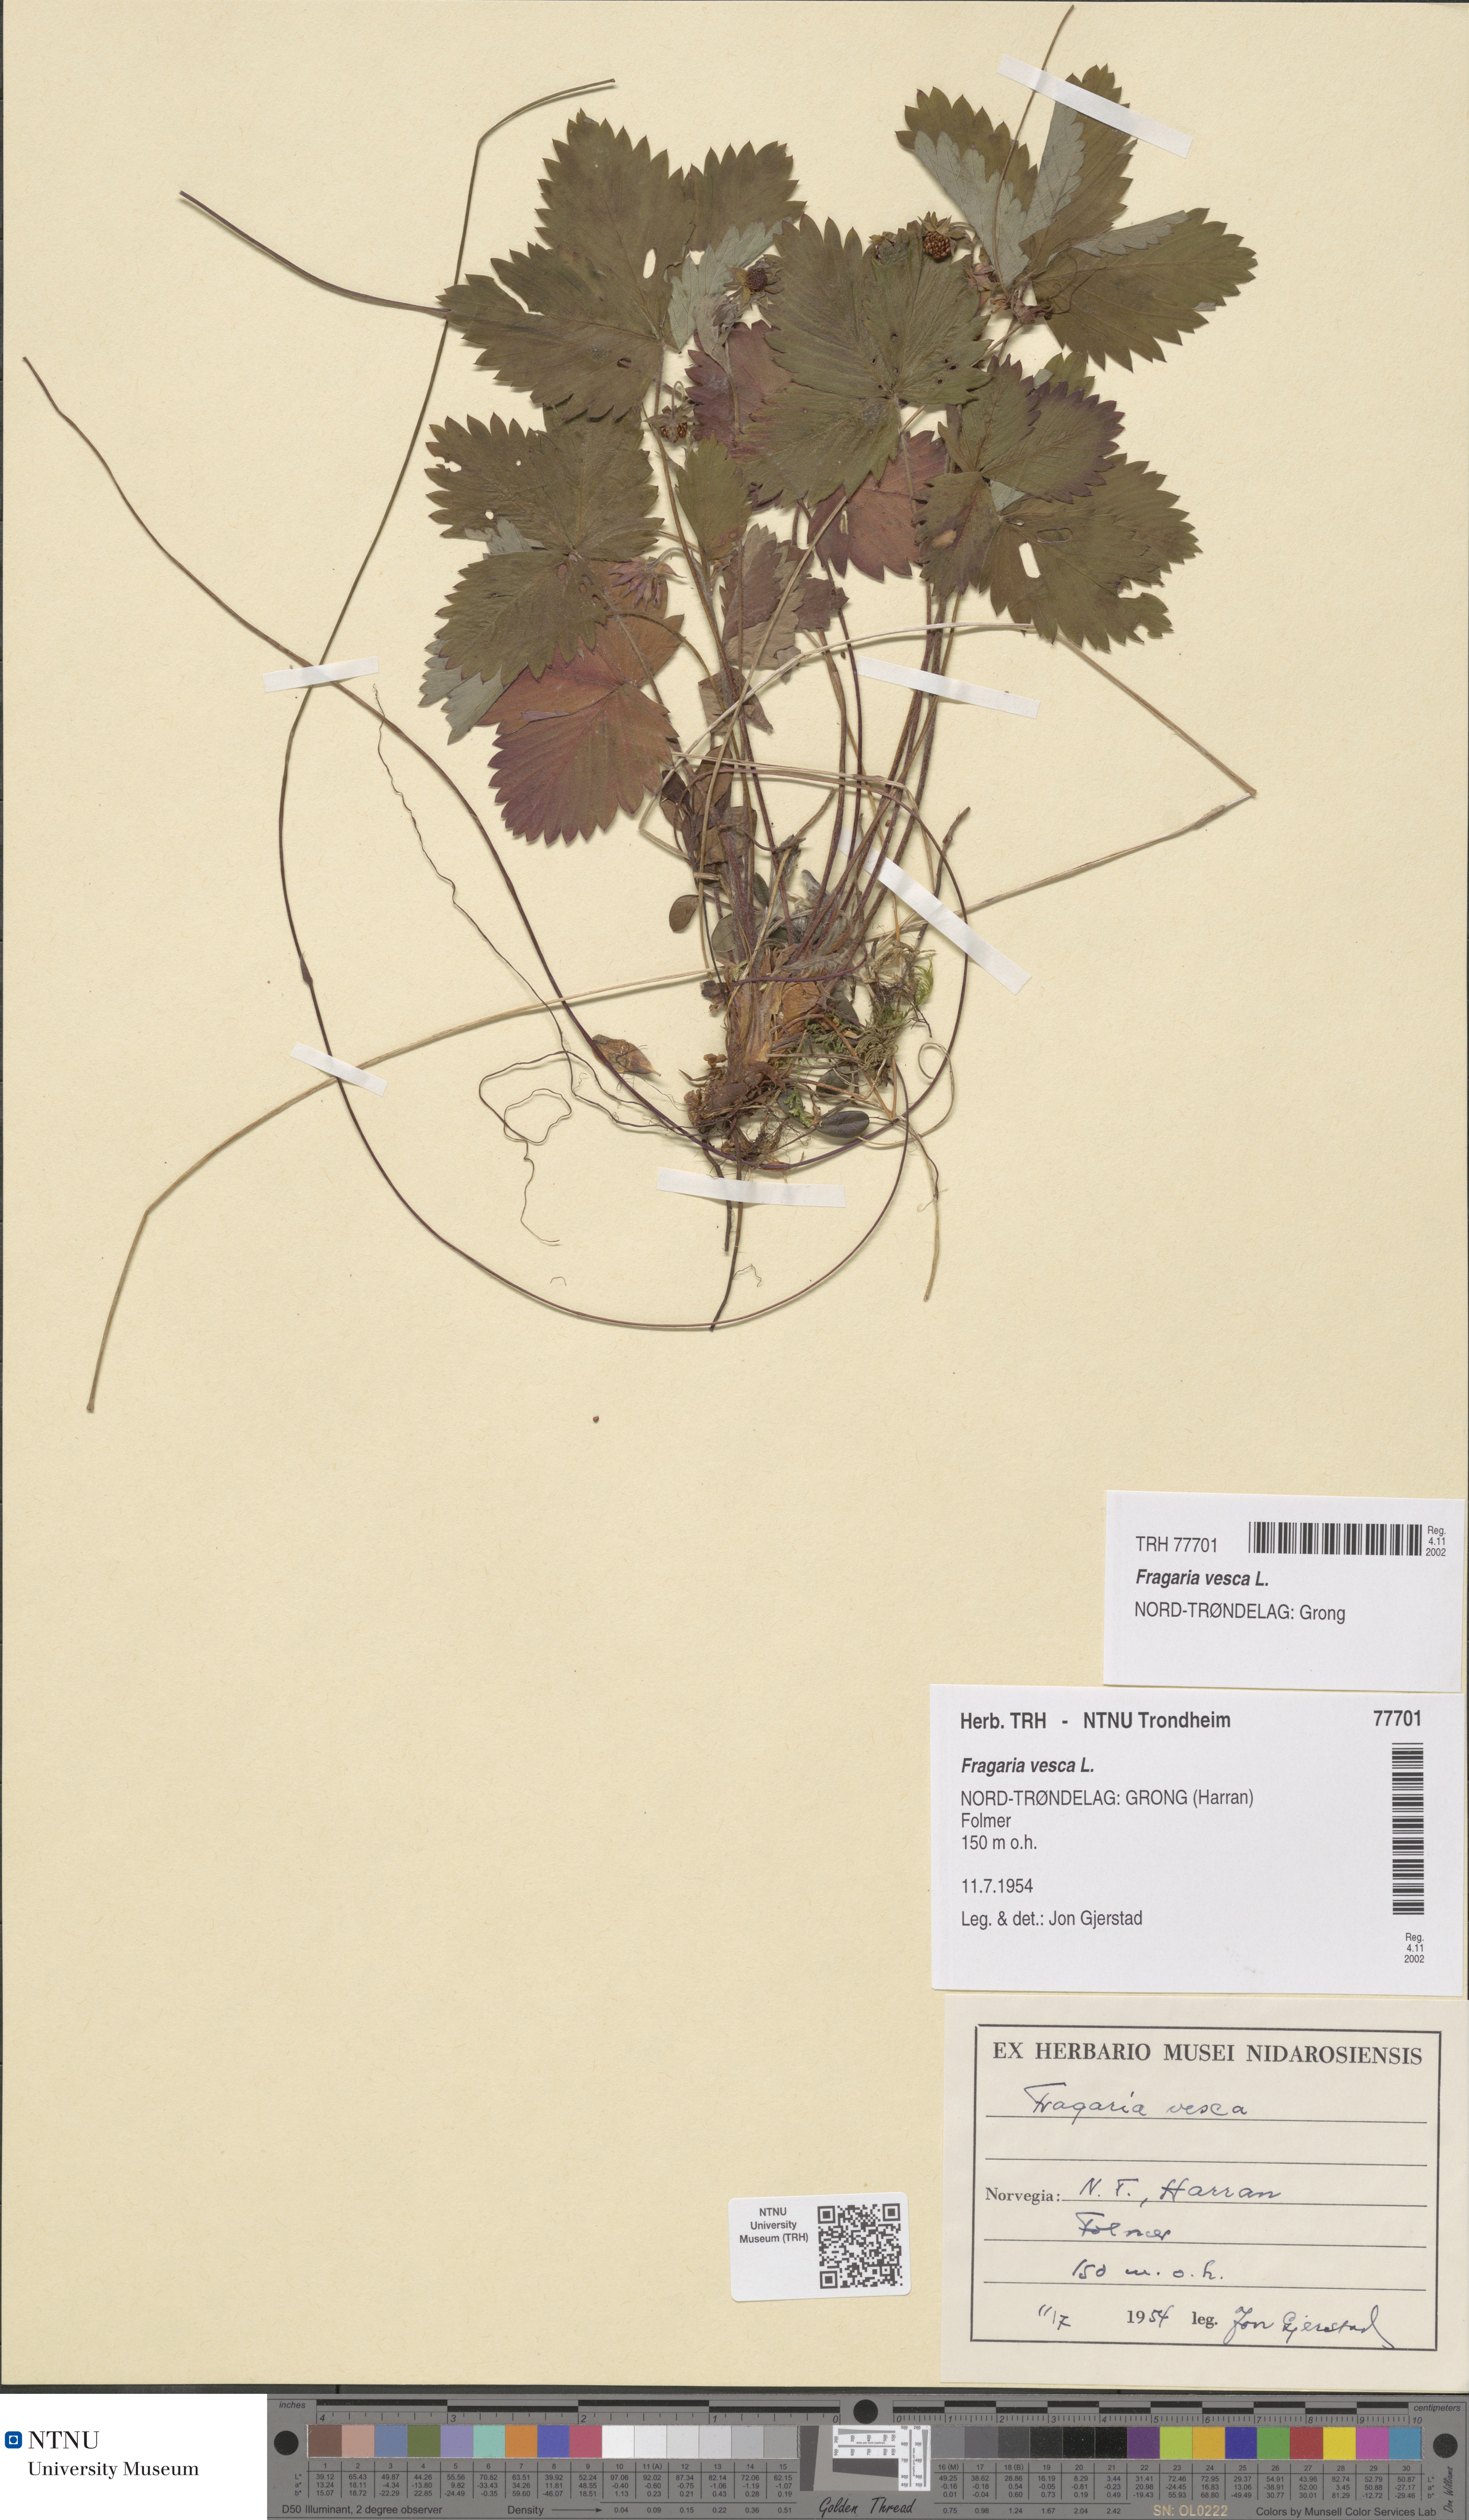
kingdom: Plantae
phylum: Tracheophyta
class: Magnoliopsida
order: Rosales
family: Rosaceae
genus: Fragaria
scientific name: Fragaria vesca
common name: Wild strawberry
